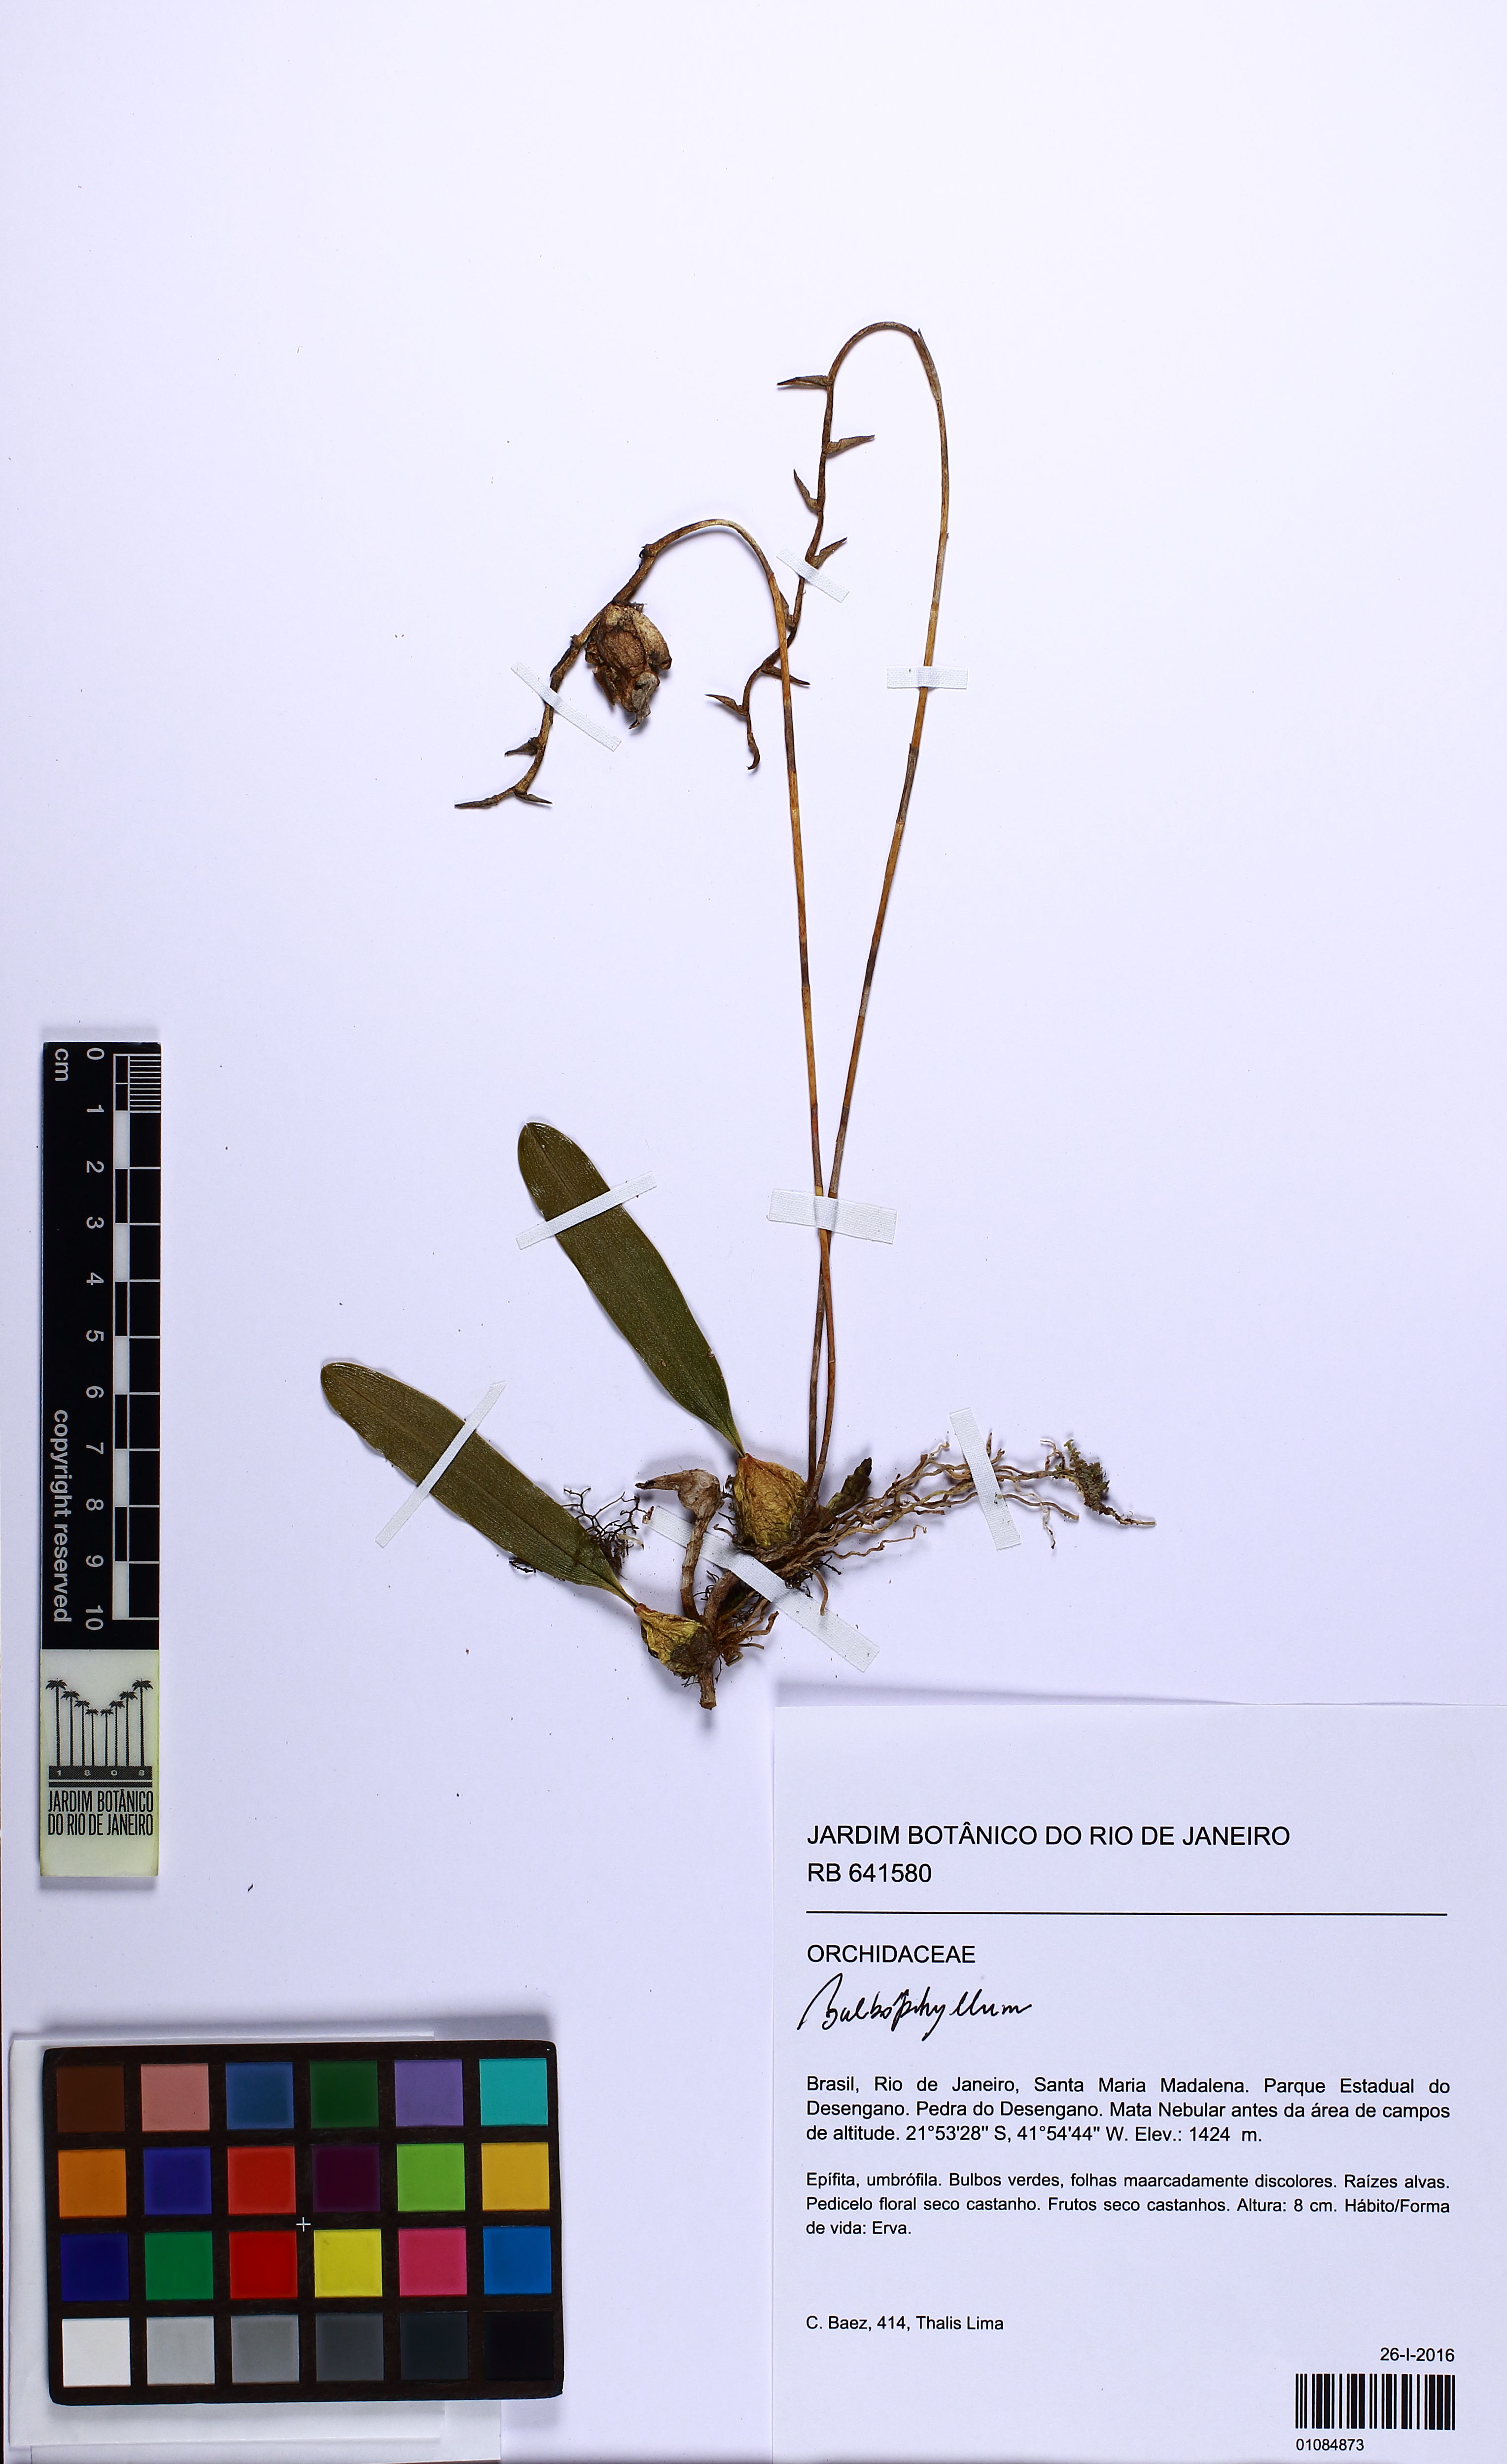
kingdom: Plantae
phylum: Tracheophyta
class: Liliopsida
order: Asparagales
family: Orchidaceae
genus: Bulbophyllum
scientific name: Bulbophyllum
